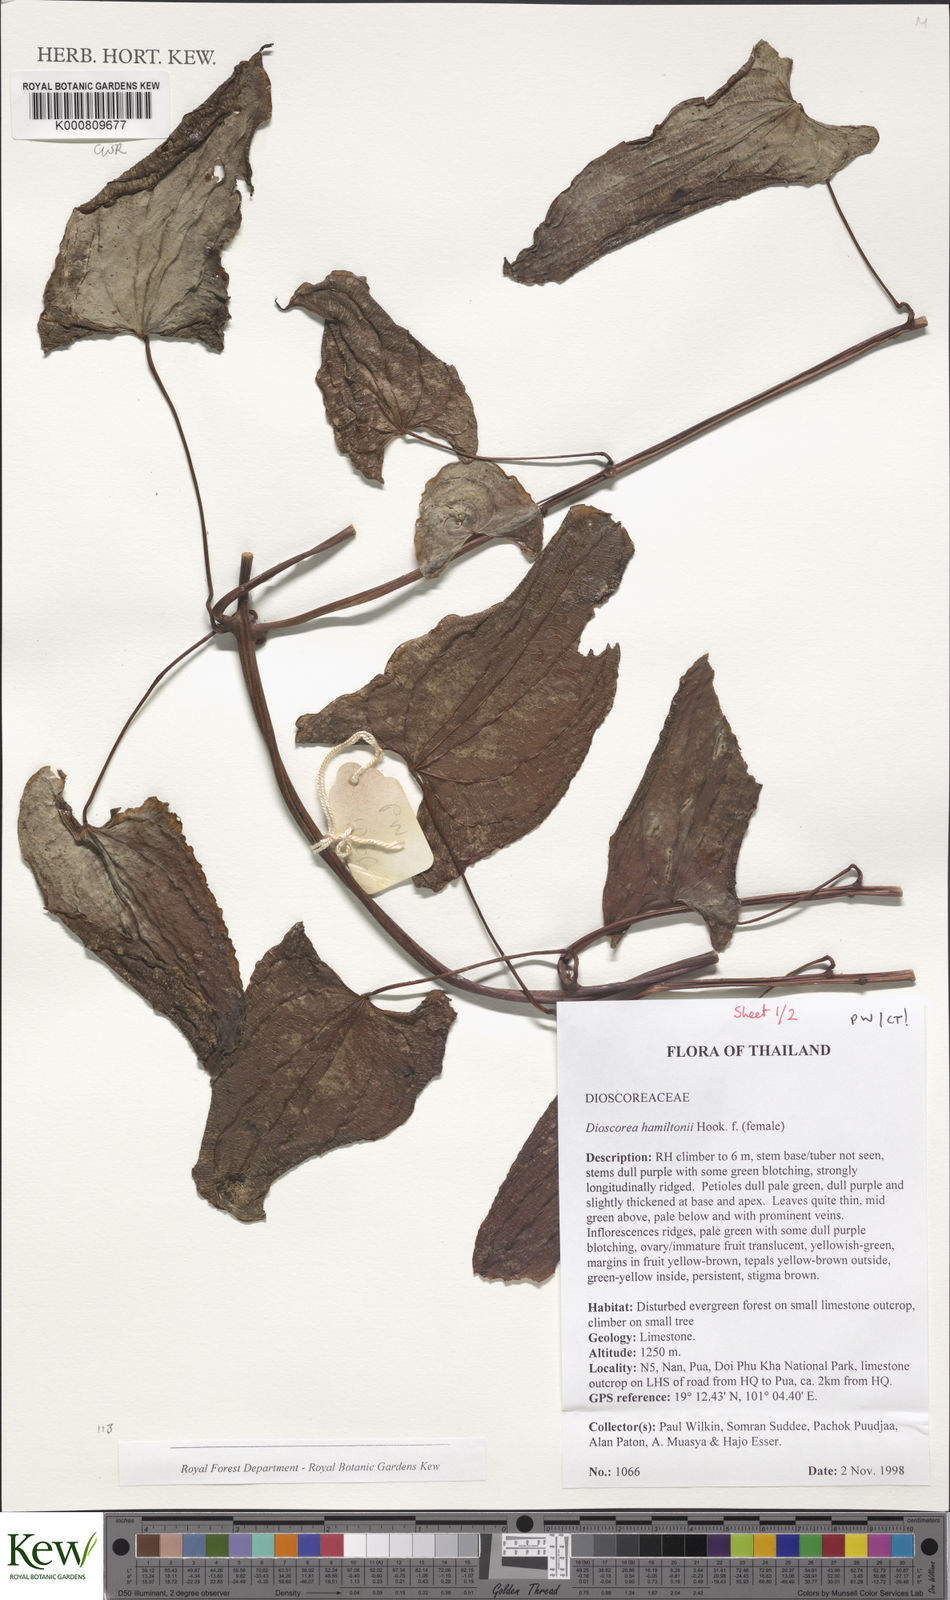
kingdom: Plantae
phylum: Tracheophyta
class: Liliopsida
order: Dioscoreales
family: Dioscoreaceae
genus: Dioscorea
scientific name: Dioscorea hamiltonii
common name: Mountain yam
